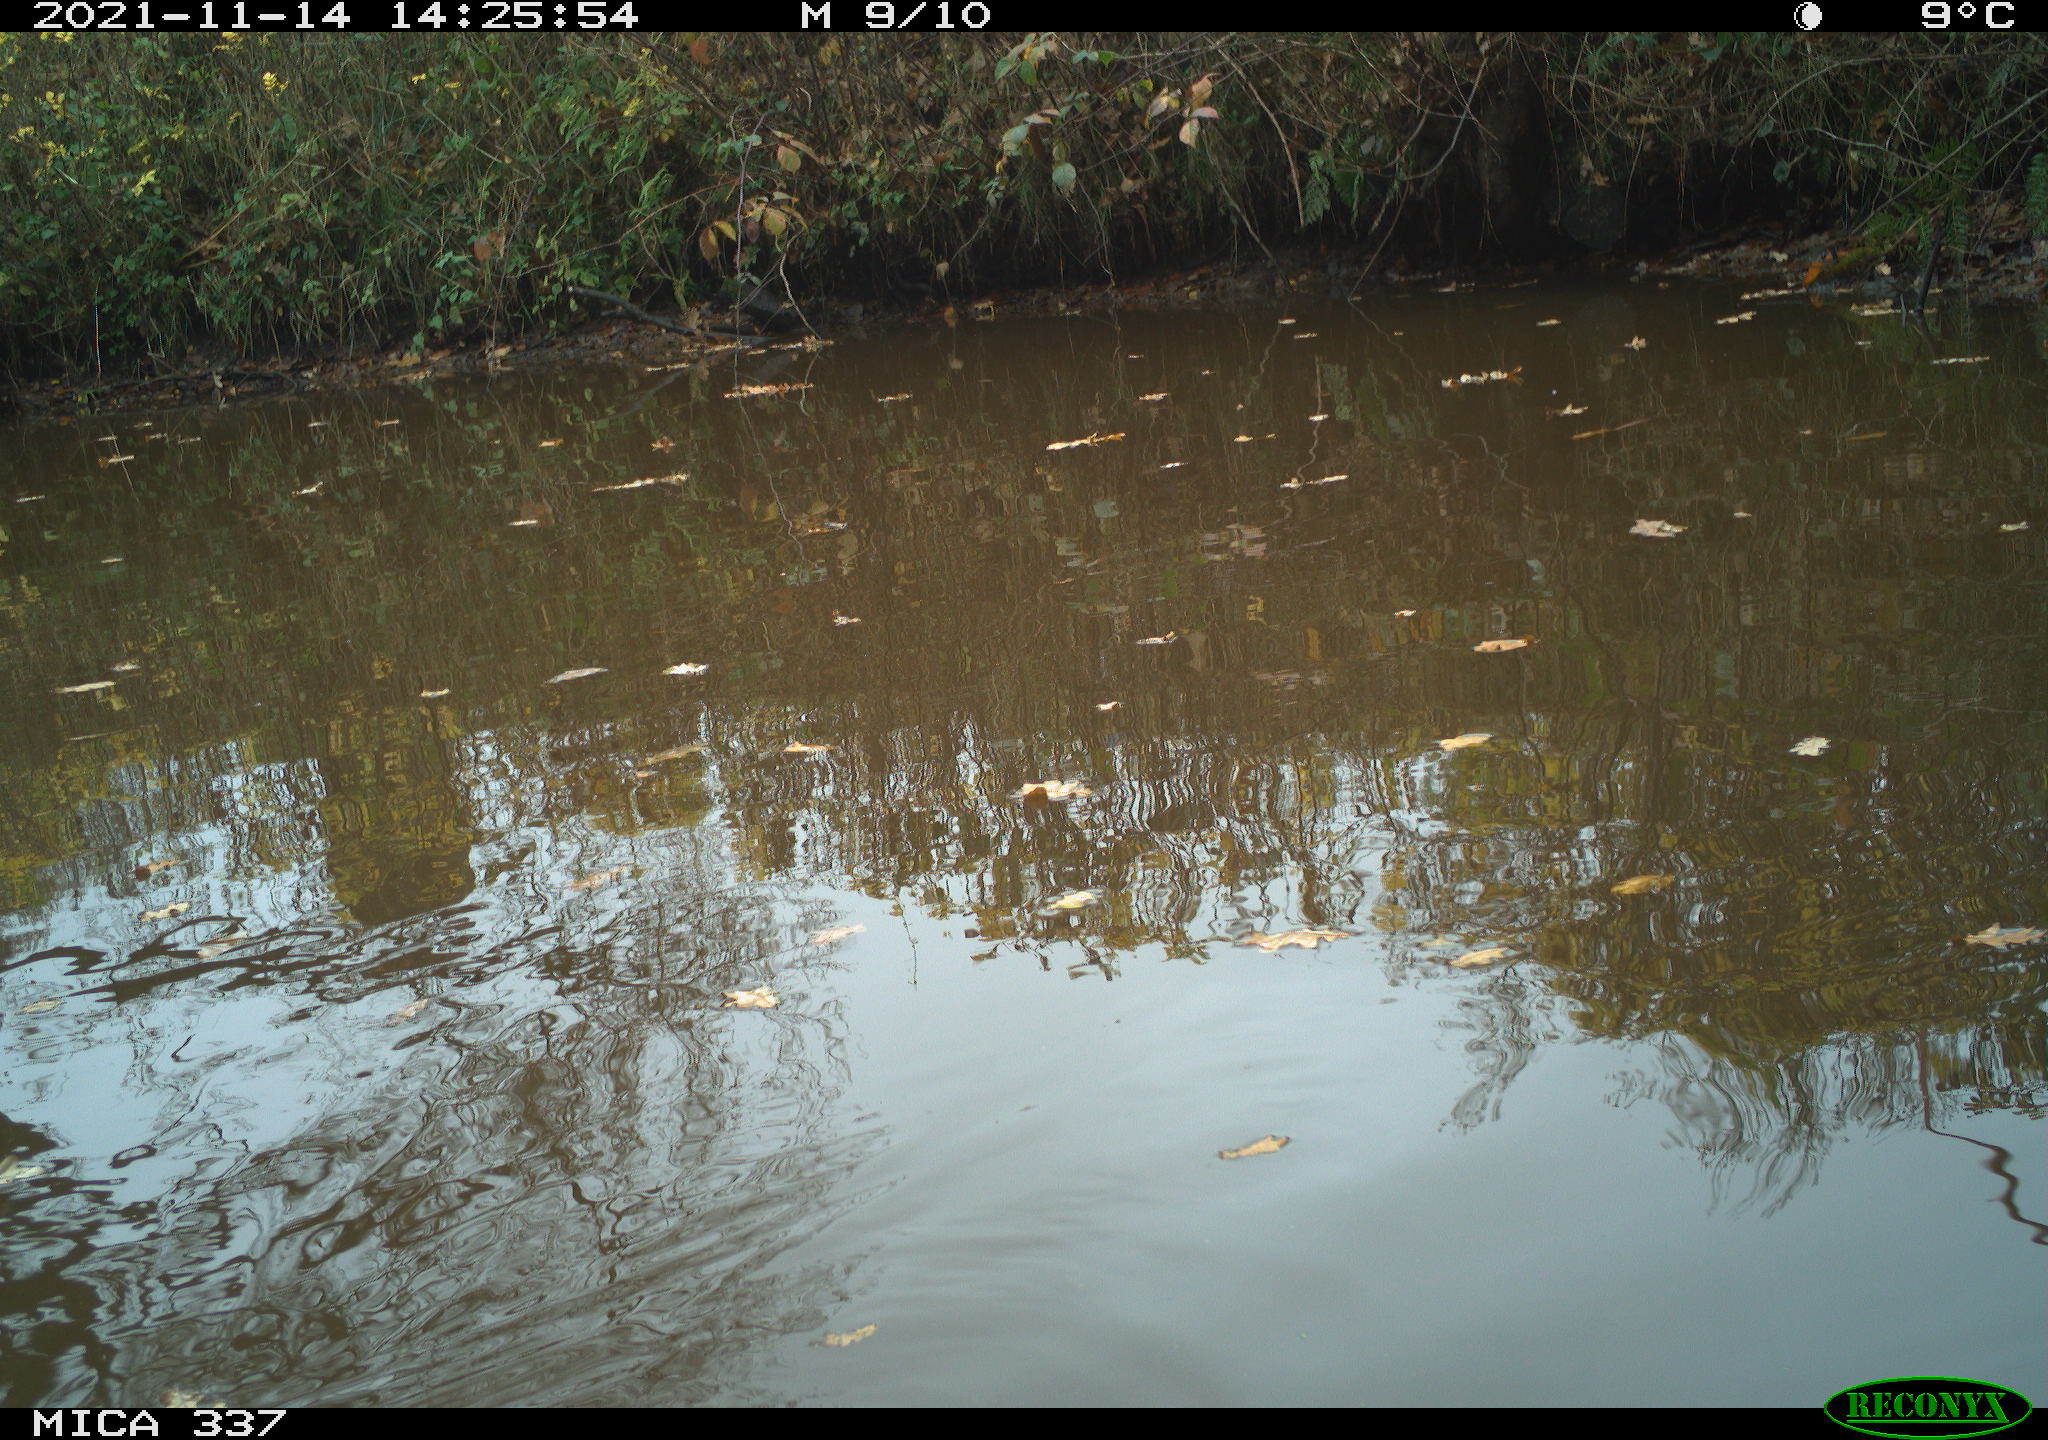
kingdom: Animalia
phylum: Chordata
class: Aves
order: Anseriformes
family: Anatidae
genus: Anas
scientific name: Anas platyrhynchos
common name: Mallard
